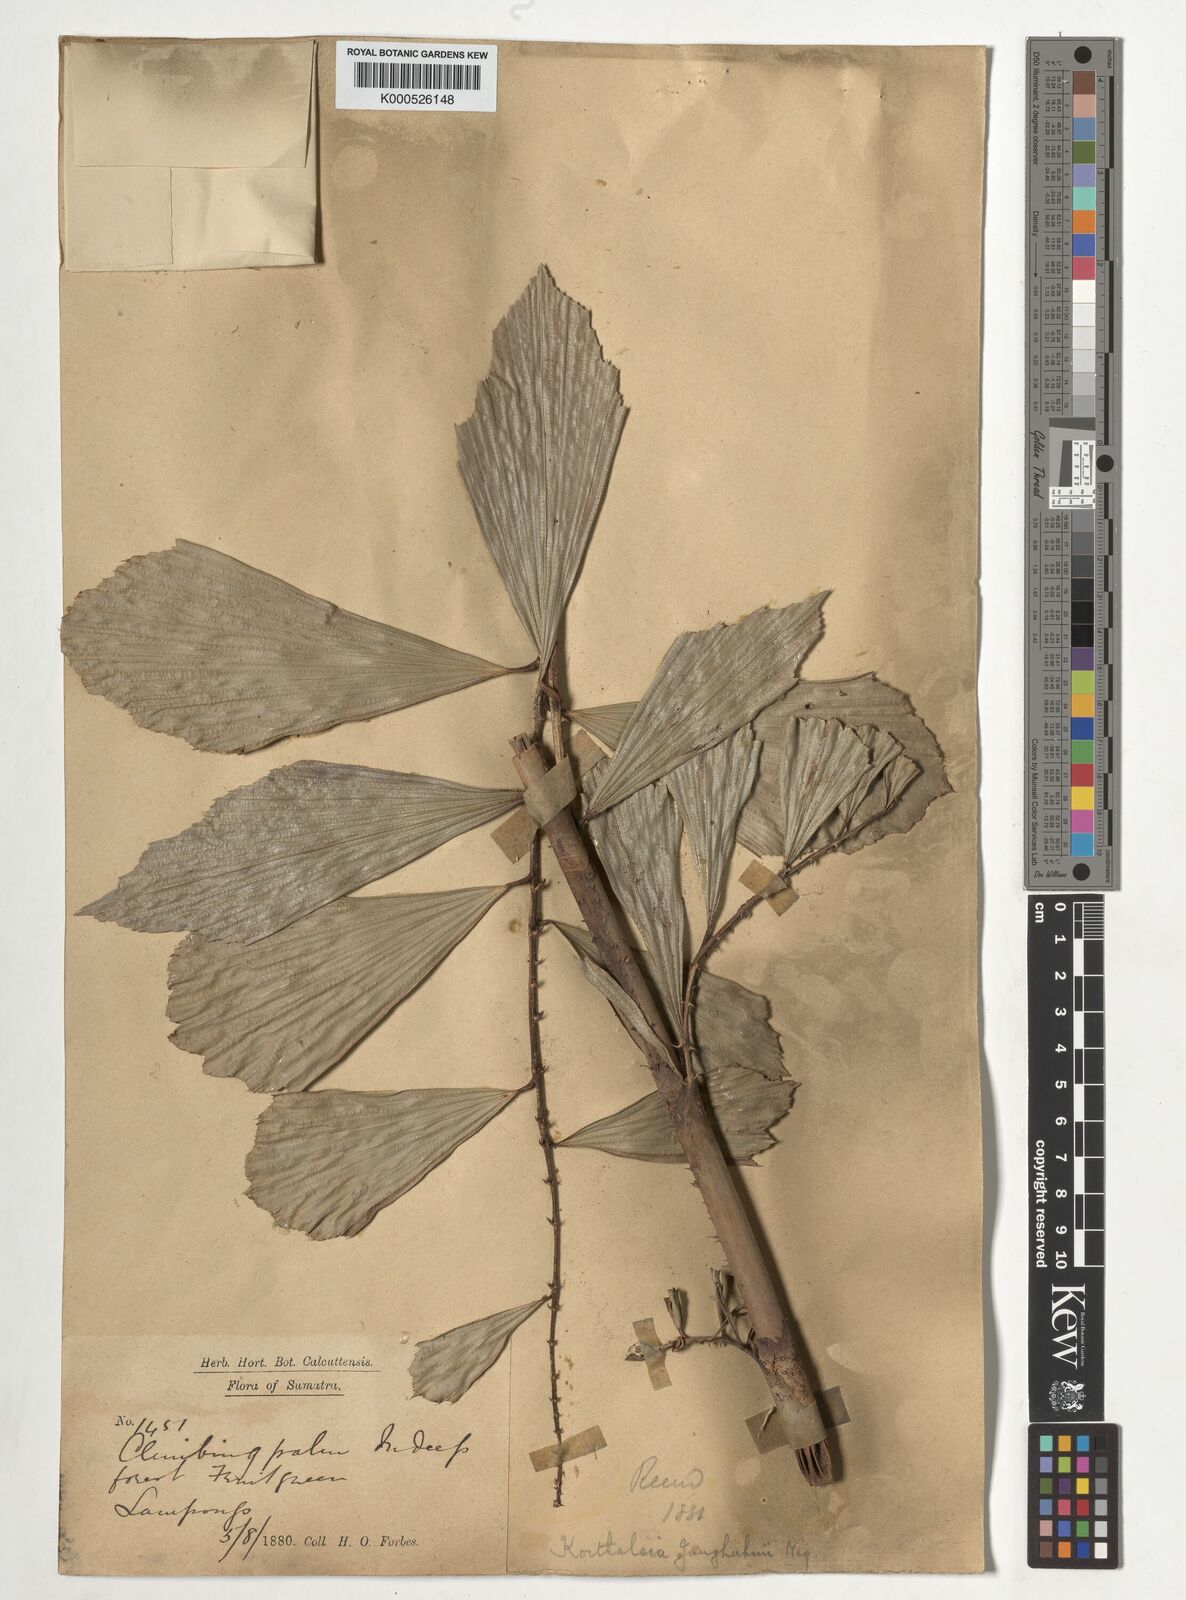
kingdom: Plantae
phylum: Tracheophyta
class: Liliopsida
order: Arecales
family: Arecaceae
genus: Korthalsia
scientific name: Korthalsia junghuhnii
